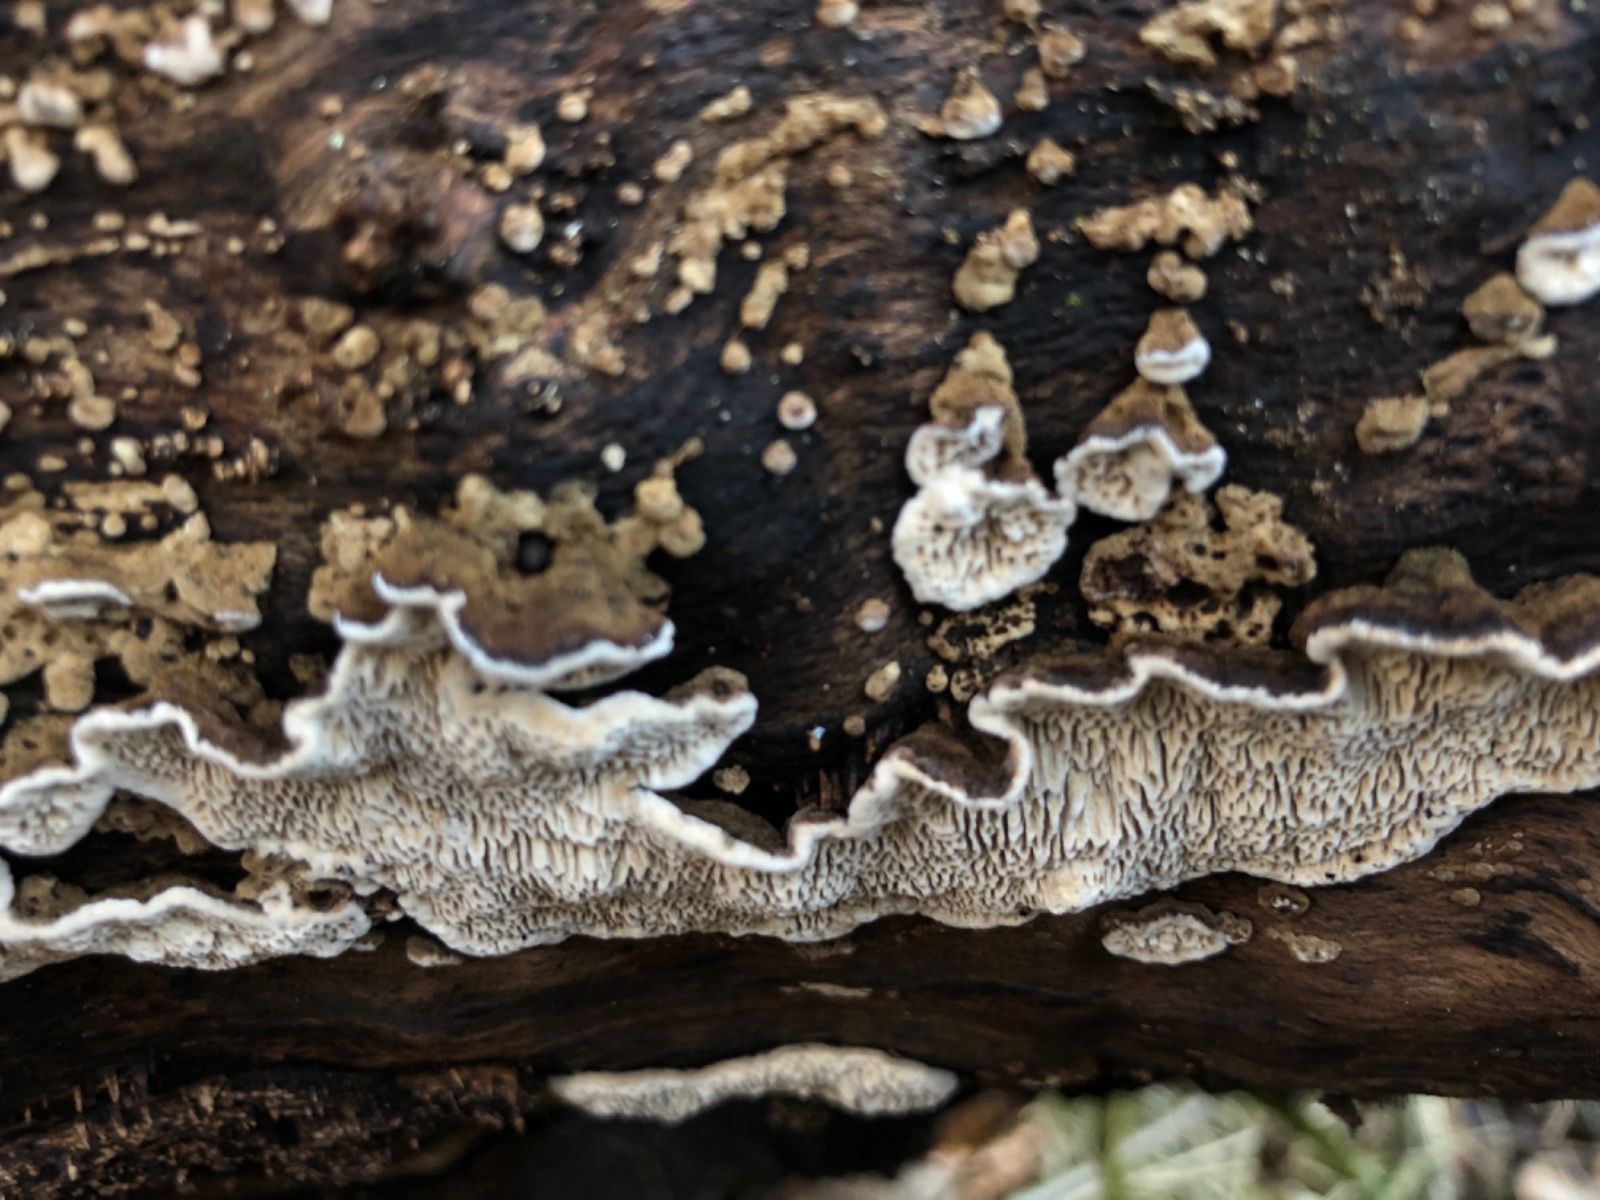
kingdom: Fungi
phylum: Basidiomycota
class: Agaricomycetes
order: Polyporales
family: Polyporaceae
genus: Podofomes
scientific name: Podofomes mollis
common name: blød begporesvamp
